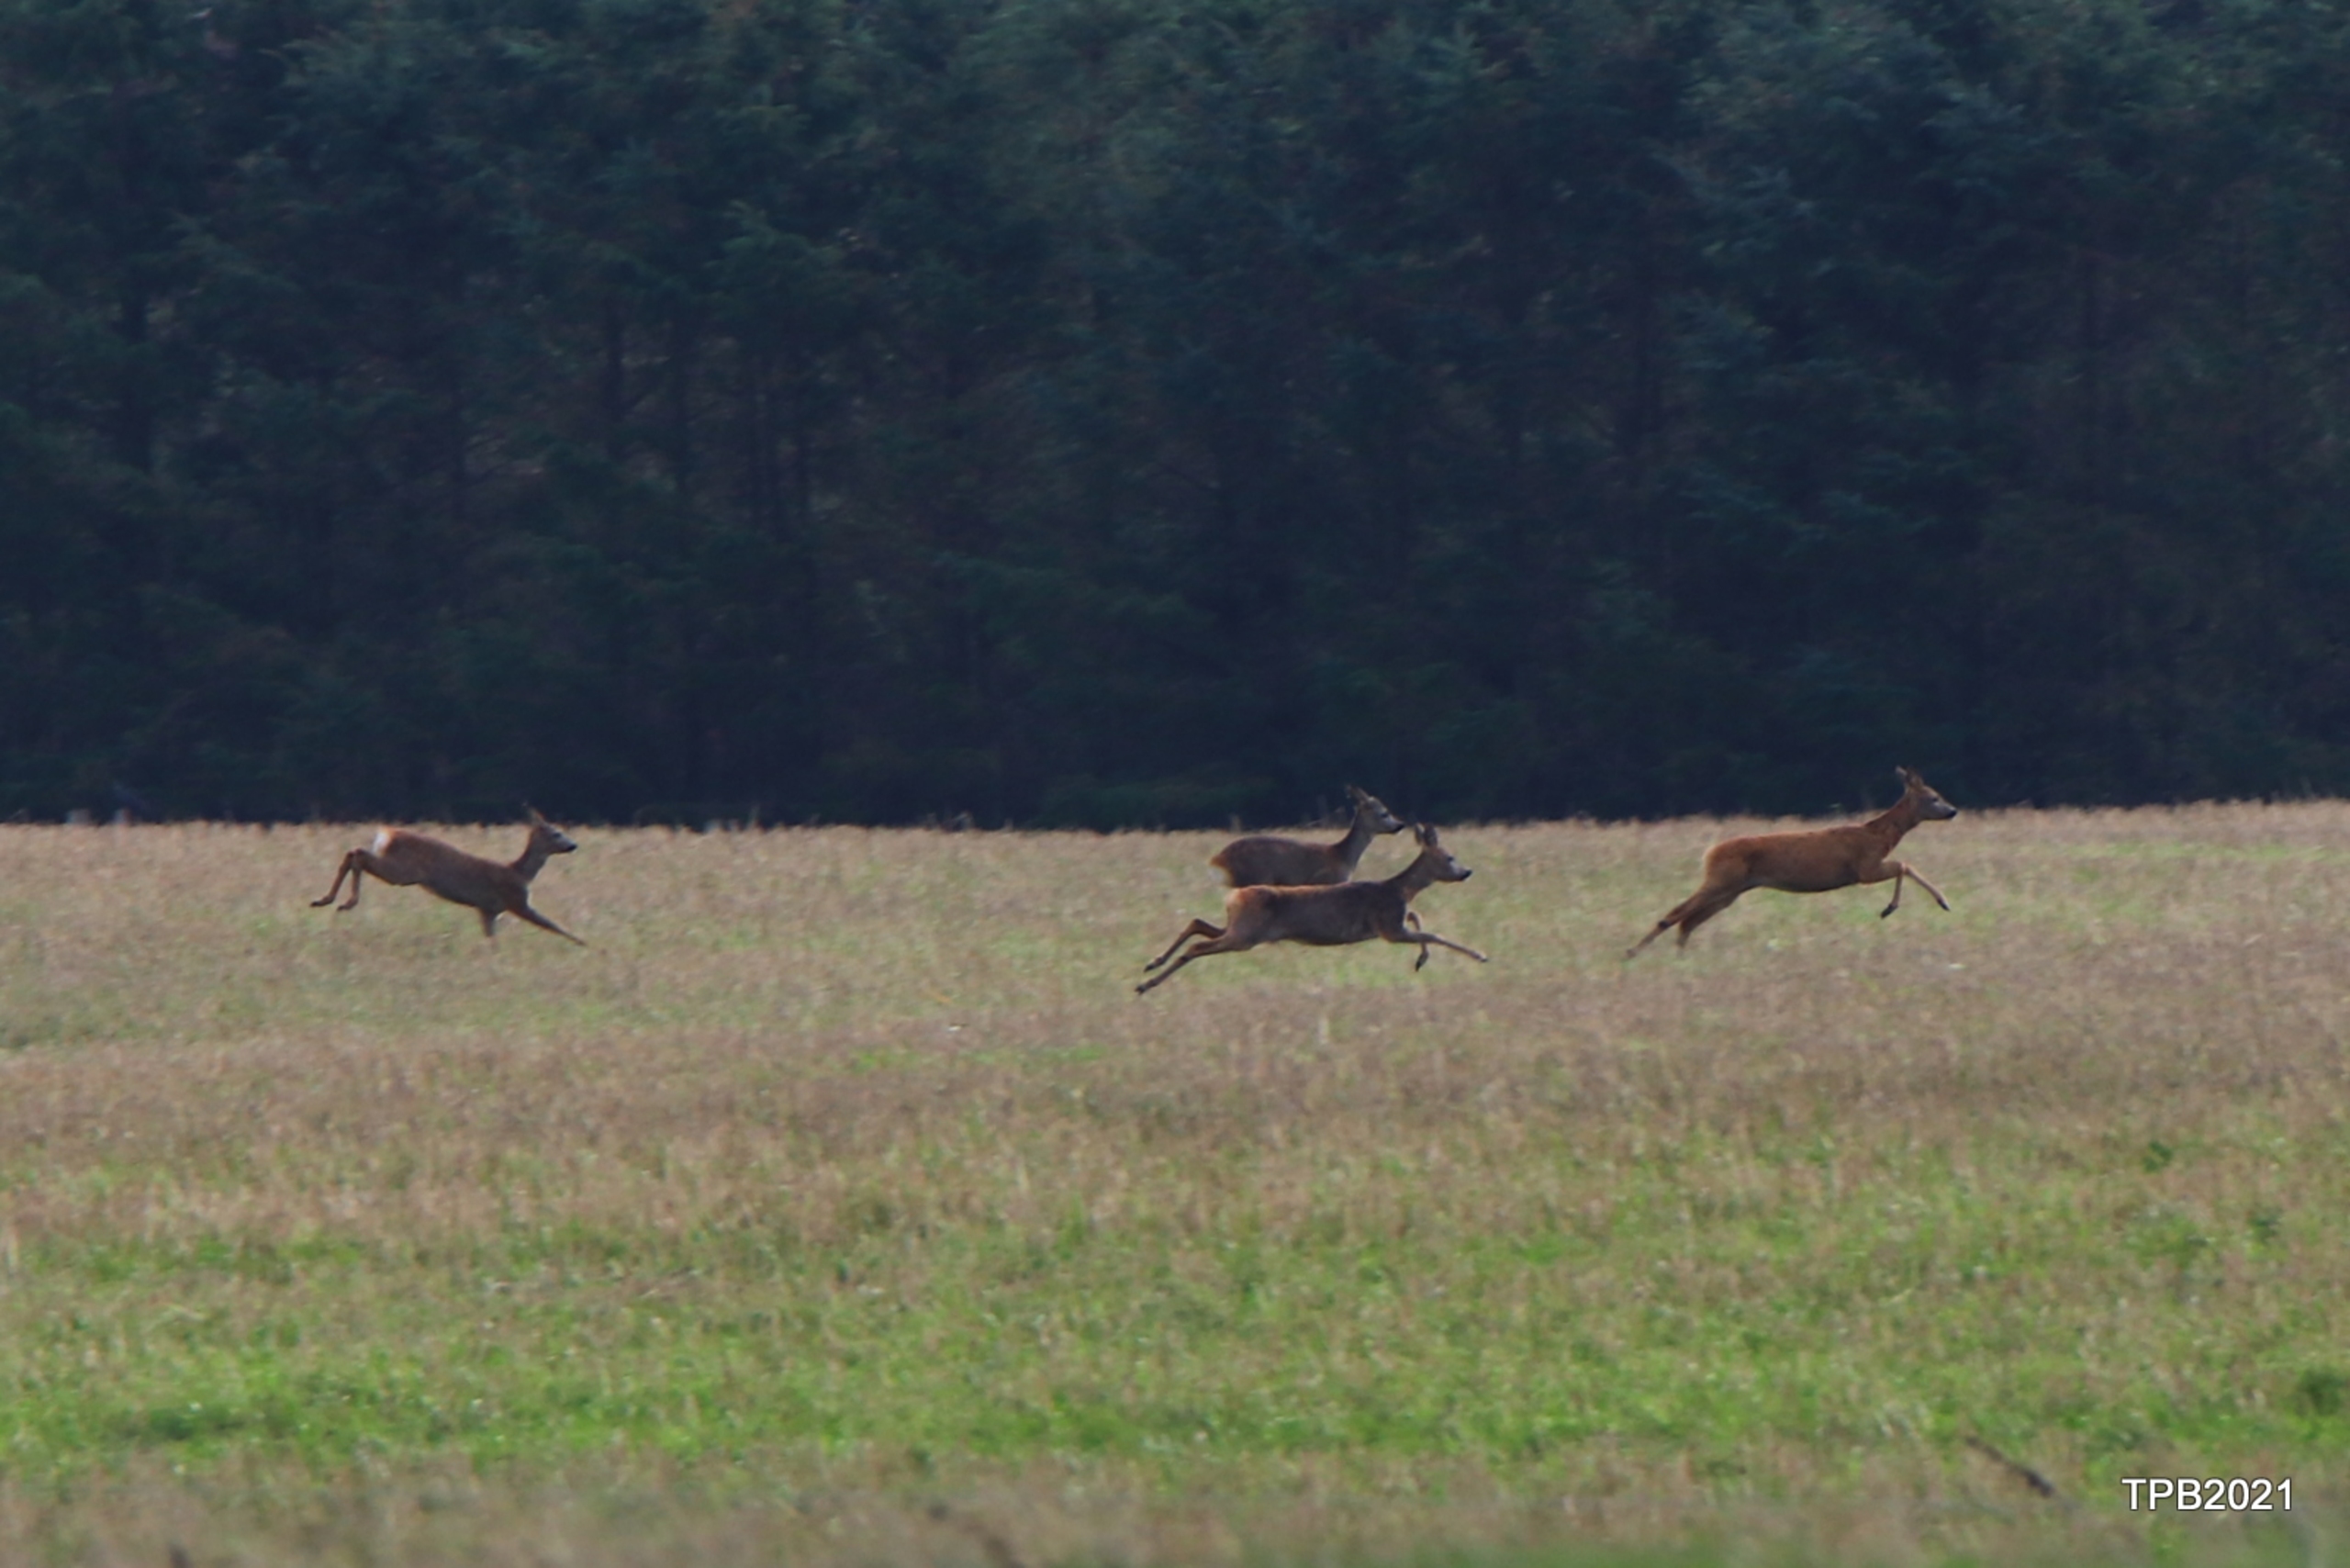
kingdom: Animalia
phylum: Chordata
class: Mammalia
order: Artiodactyla
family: Cervidae
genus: Capreolus
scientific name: Capreolus capreolus
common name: Rådyr
